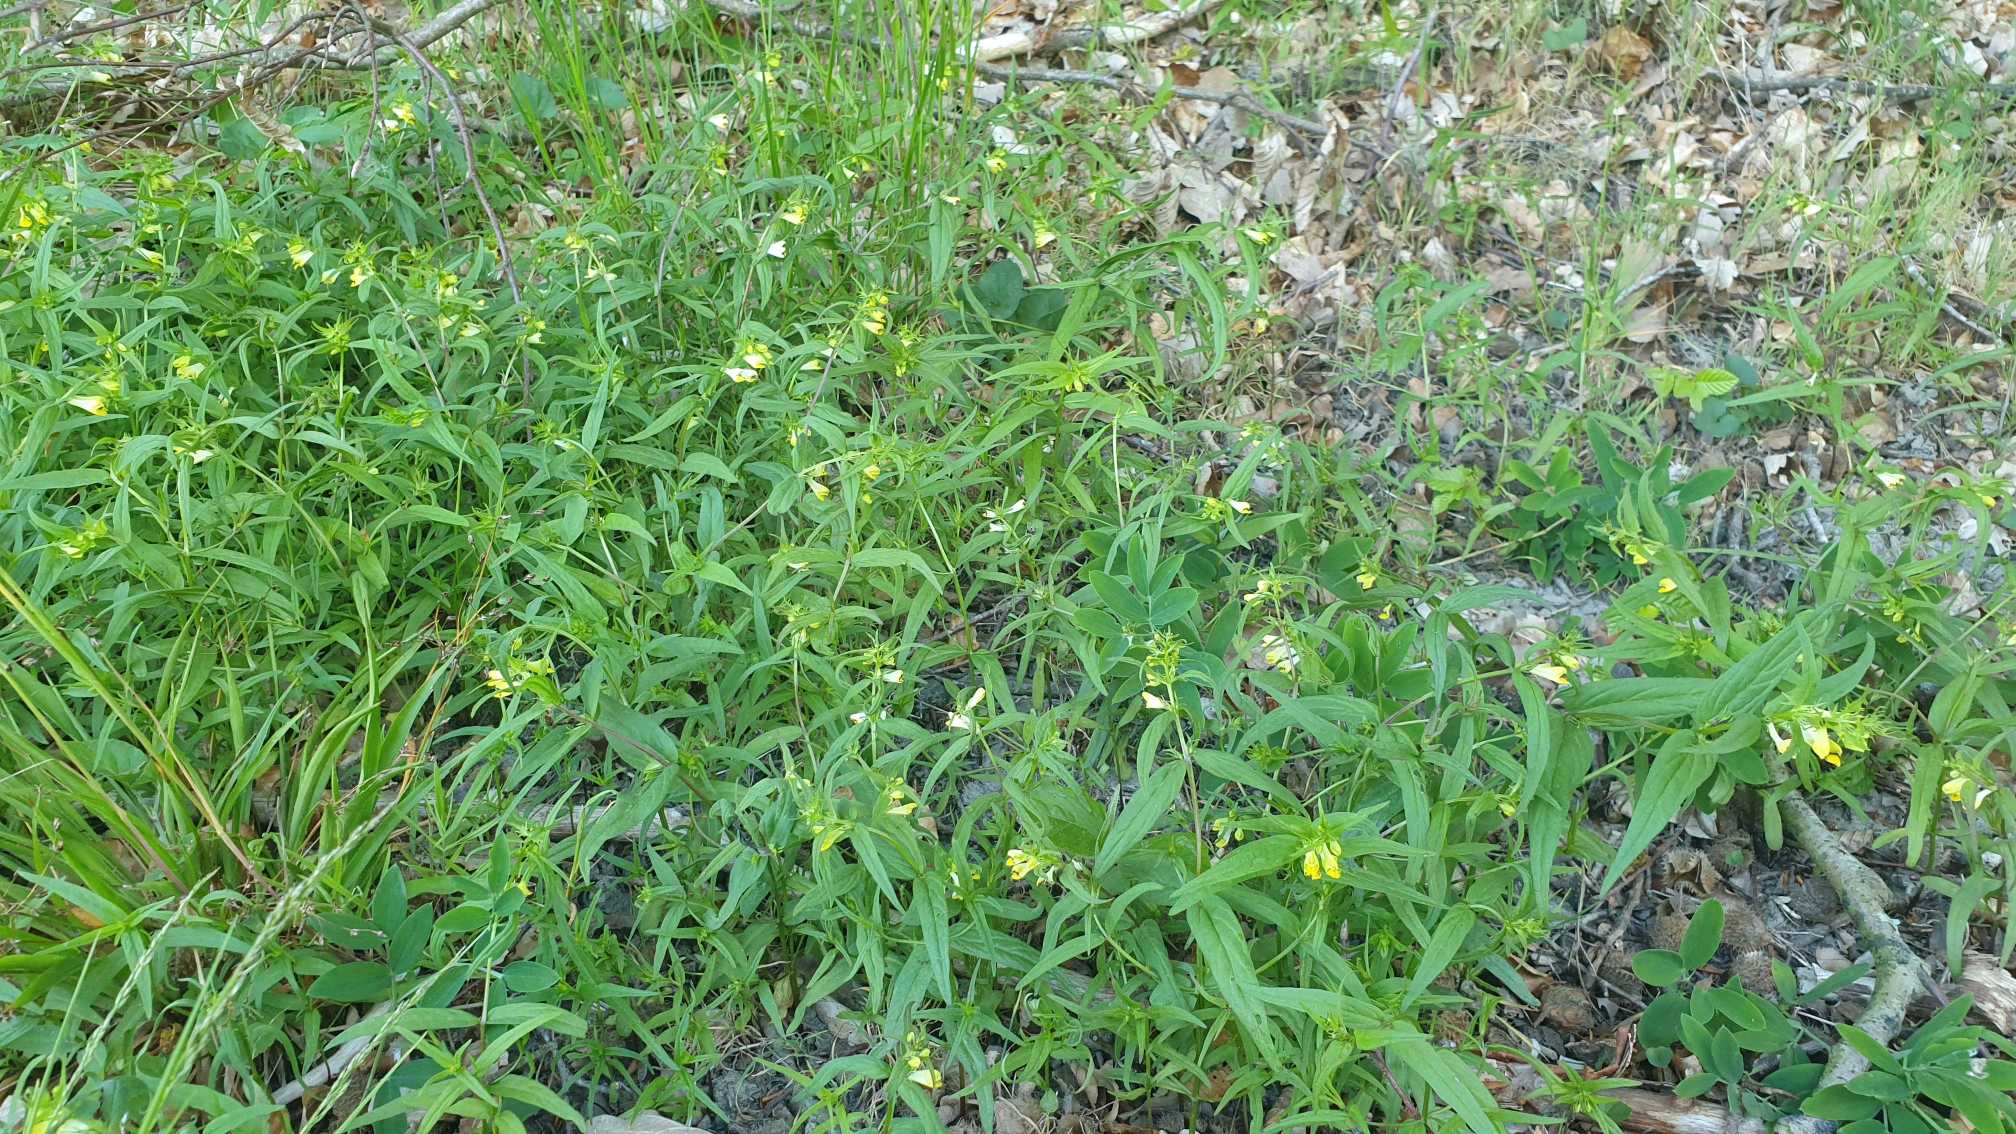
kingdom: Plantae
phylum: Tracheophyta
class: Magnoliopsida
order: Lamiales
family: Orobanchaceae
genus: Melampyrum
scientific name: Melampyrum pratense
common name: Almindelig kohvede
